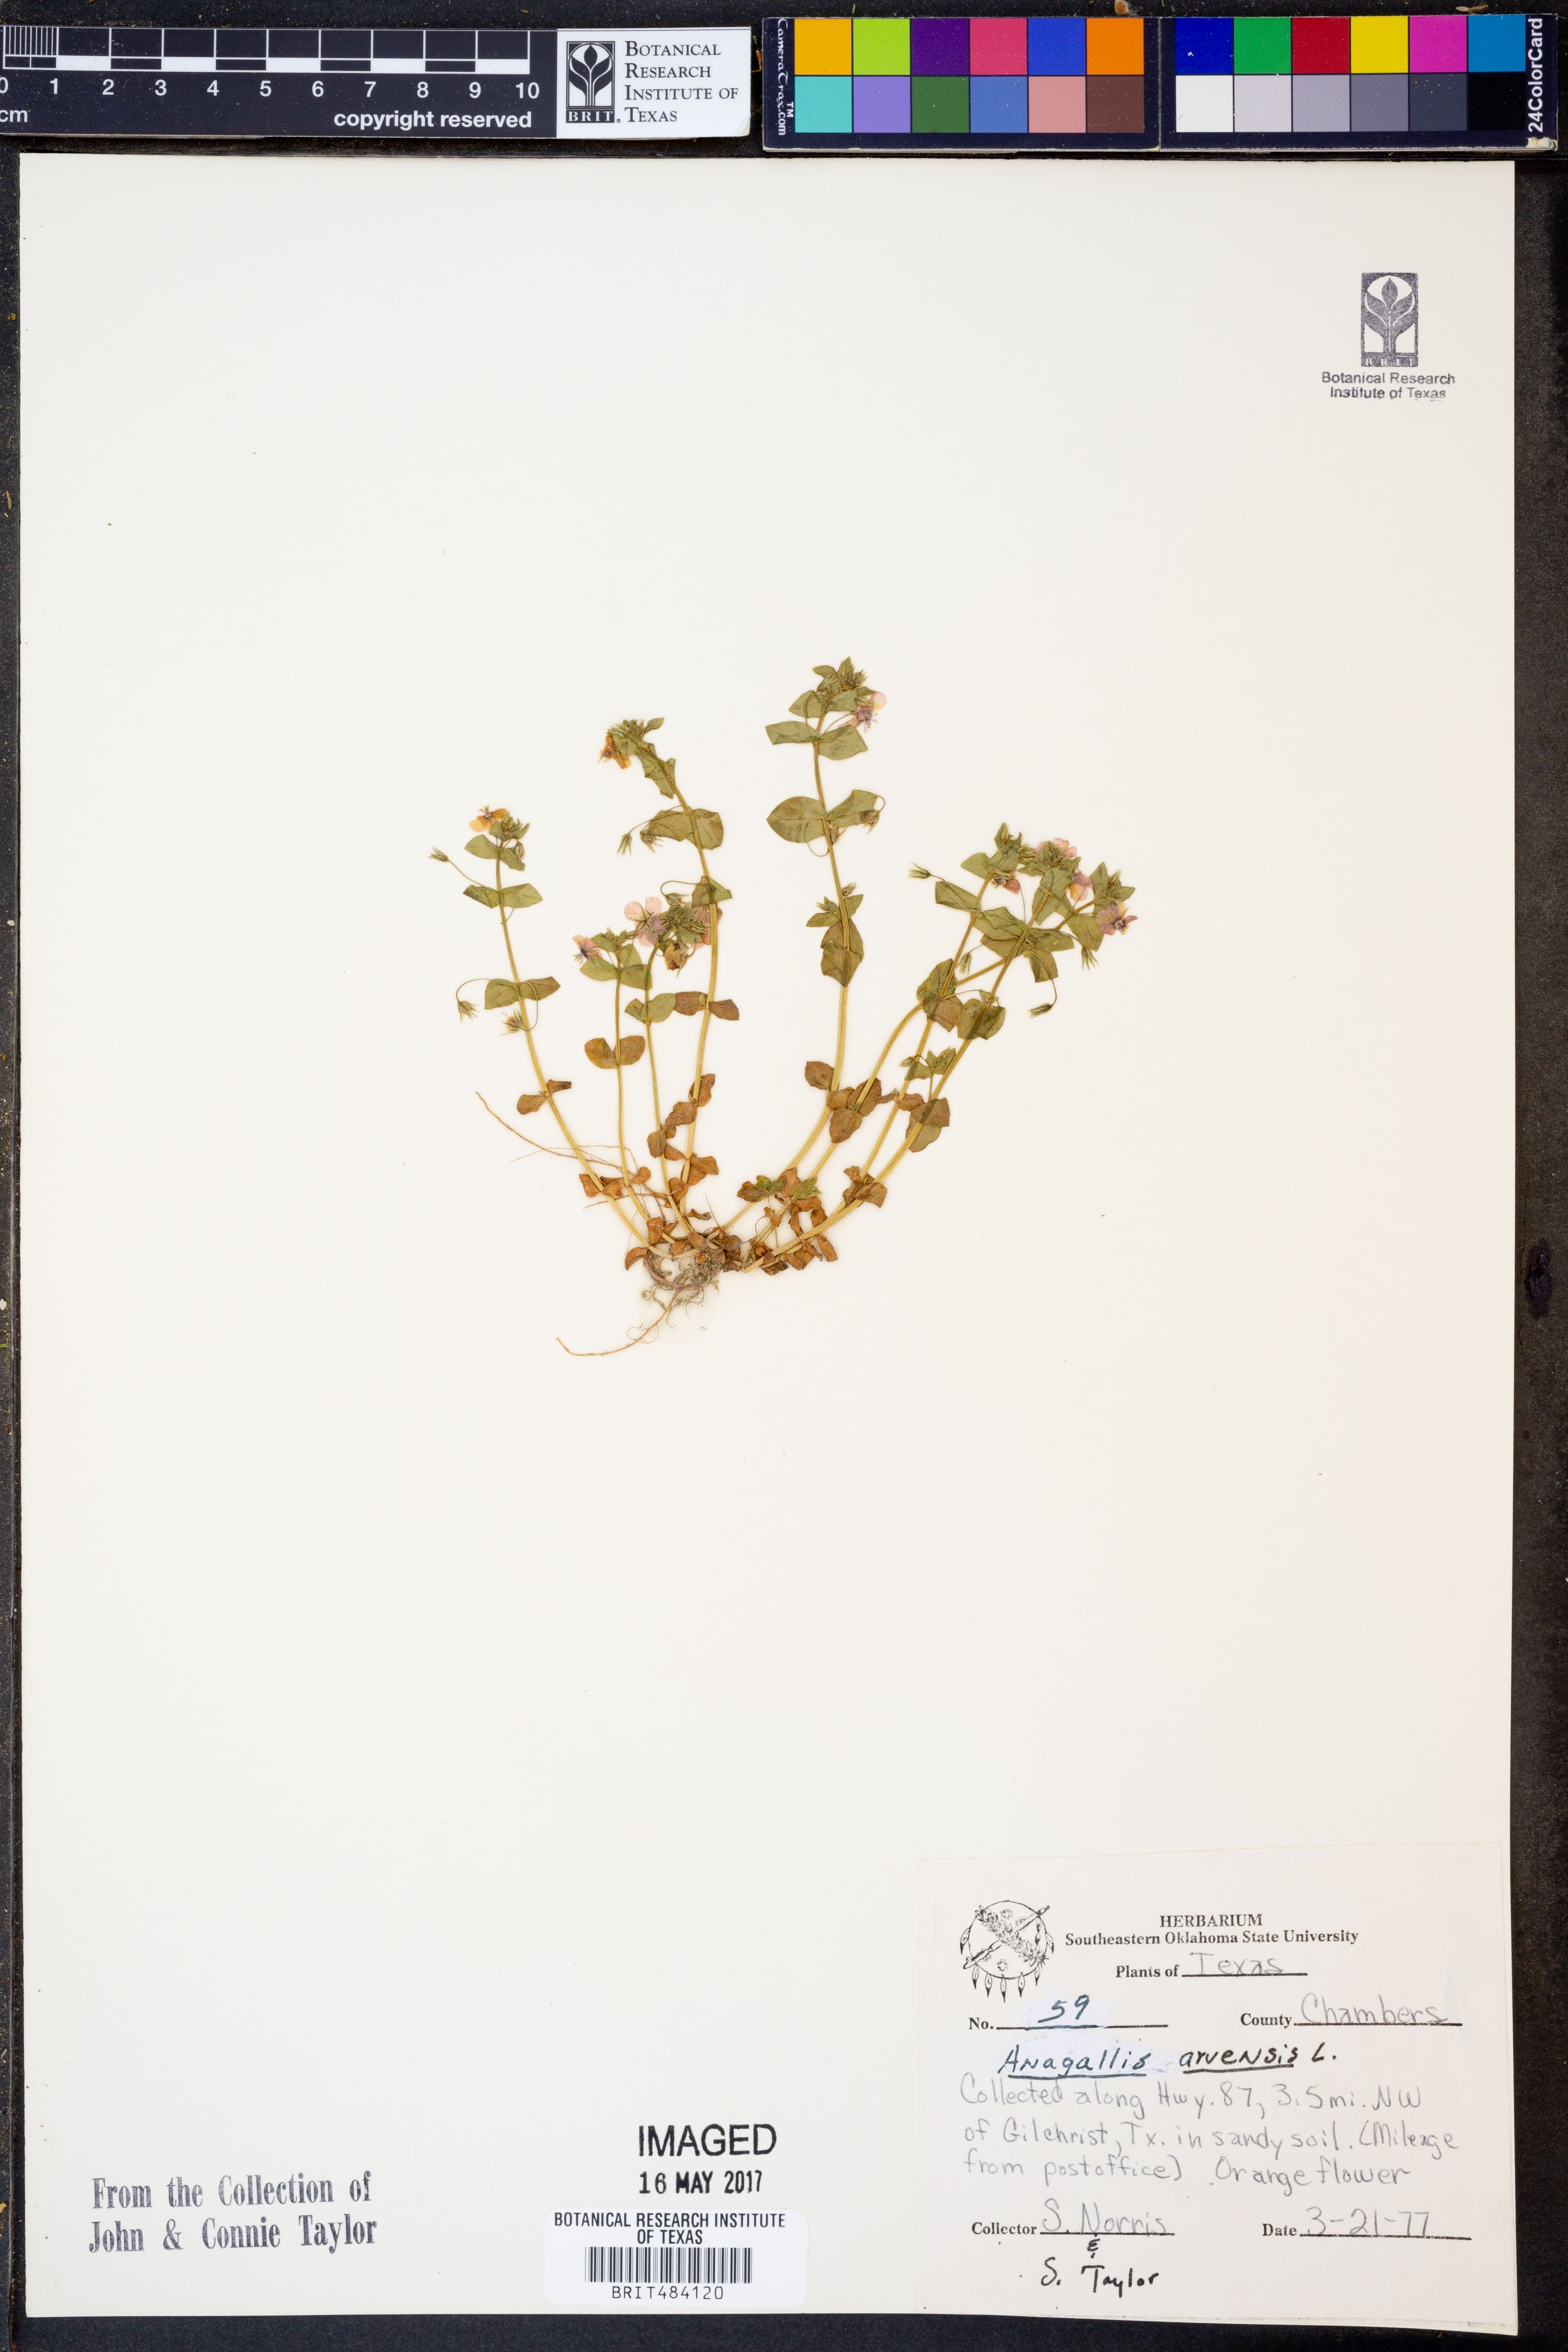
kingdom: Plantae
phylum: Tracheophyta
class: Magnoliopsida
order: Ericales
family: Primulaceae
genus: Lysimachia
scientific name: Lysimachia arvensis
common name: Scarlet pimpernel
